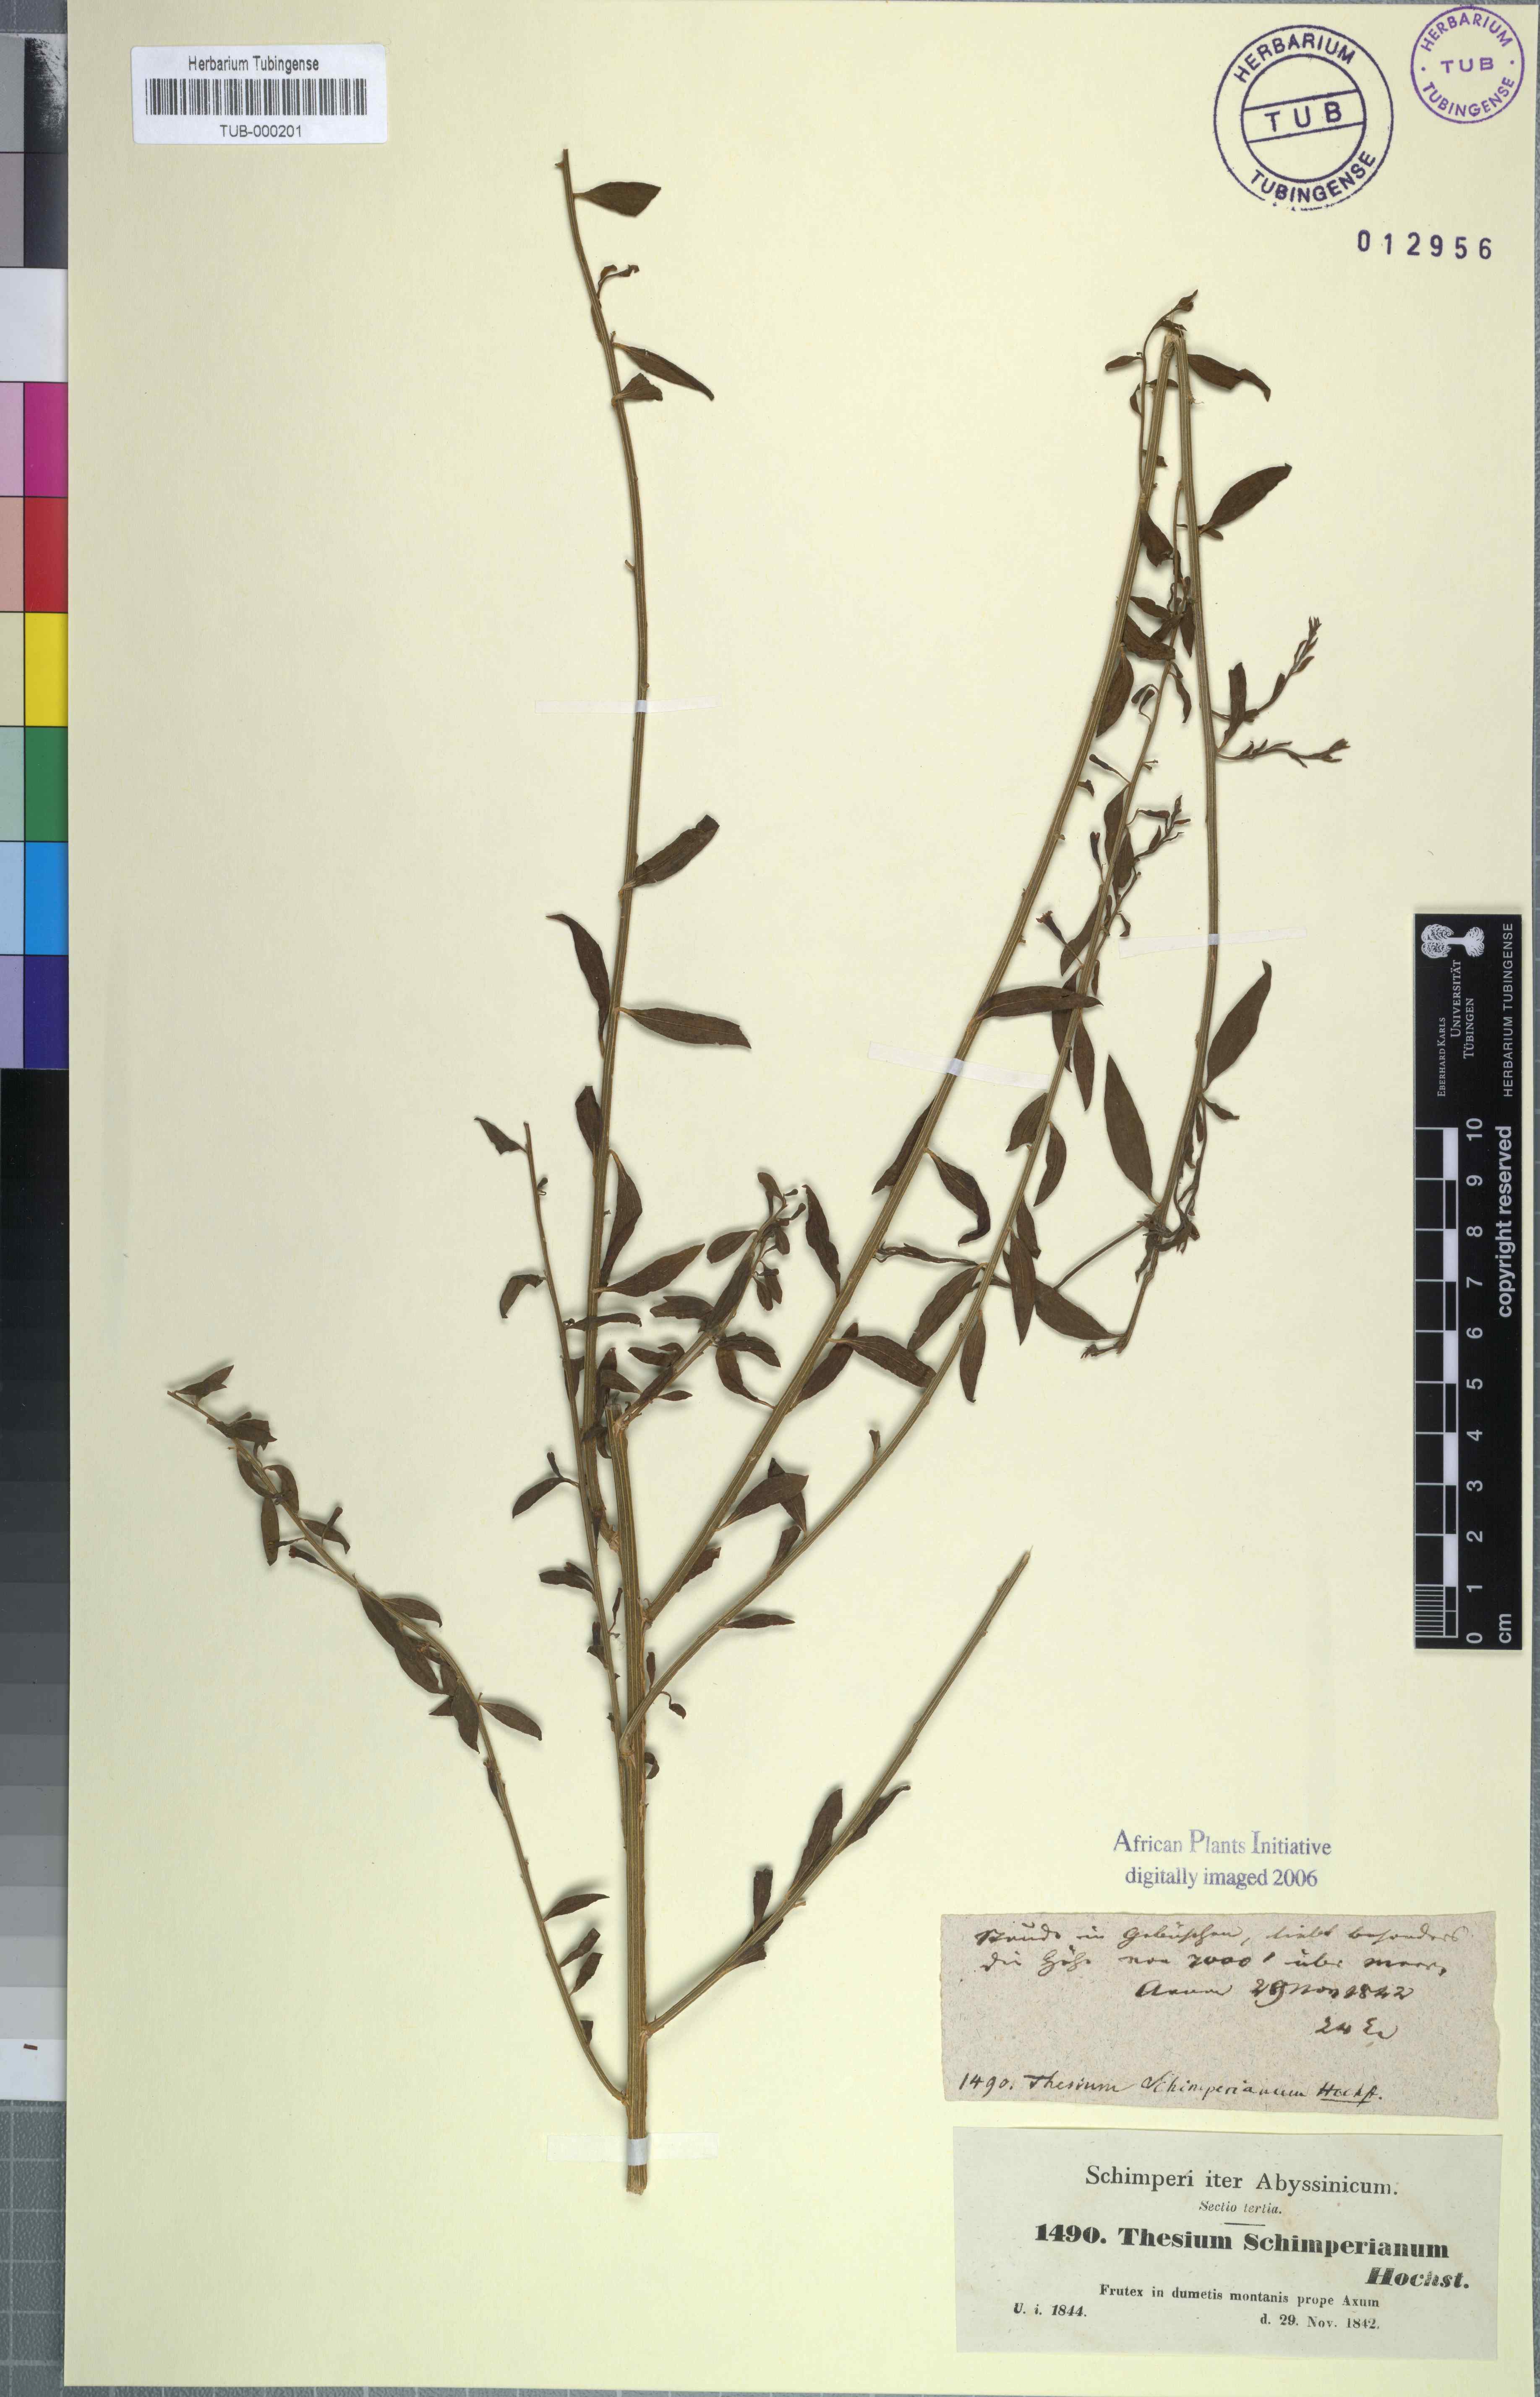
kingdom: Plantae
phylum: Tracheophyta
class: Magnoliopsida
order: Santalales
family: Thesiaceae
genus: Osyridicarpos
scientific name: Osyridicarpos schimperianus
